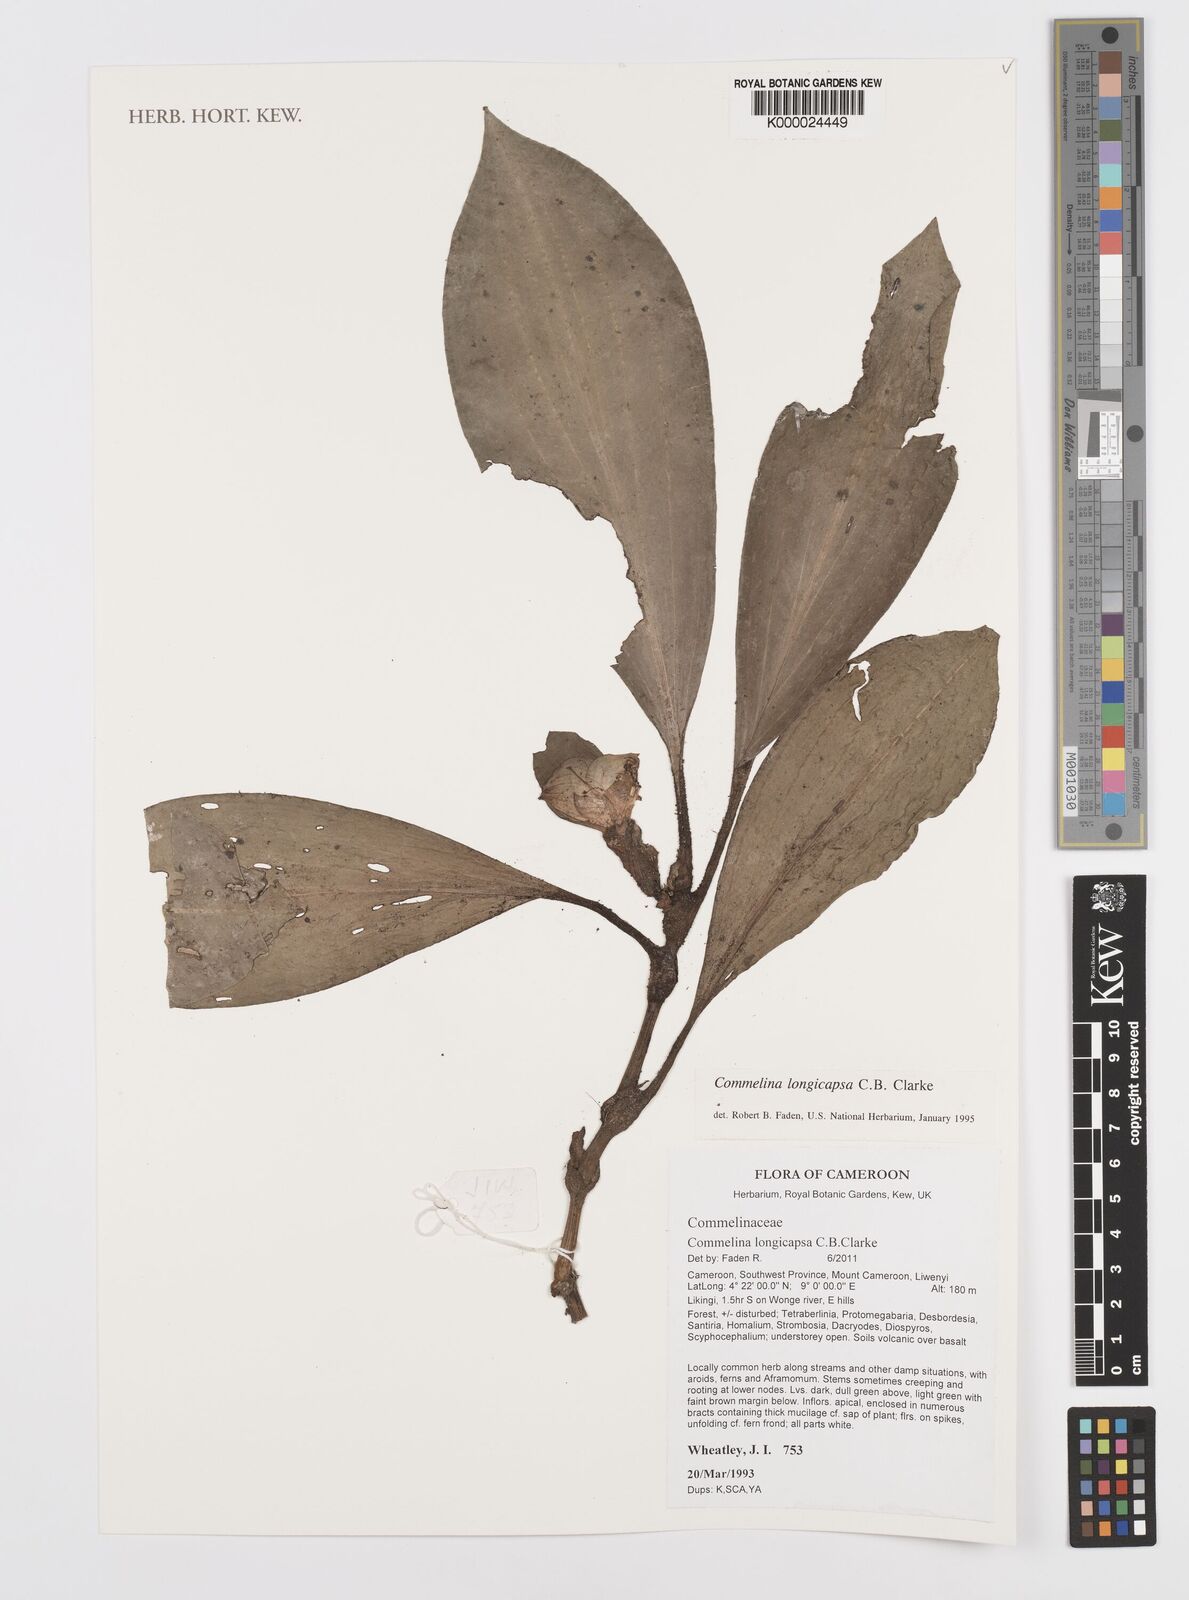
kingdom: Plantae
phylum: Tracheophyta
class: Liliopsida
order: Commelinales
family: Commelinaceae
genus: Commelina
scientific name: Commelina longicapsa
